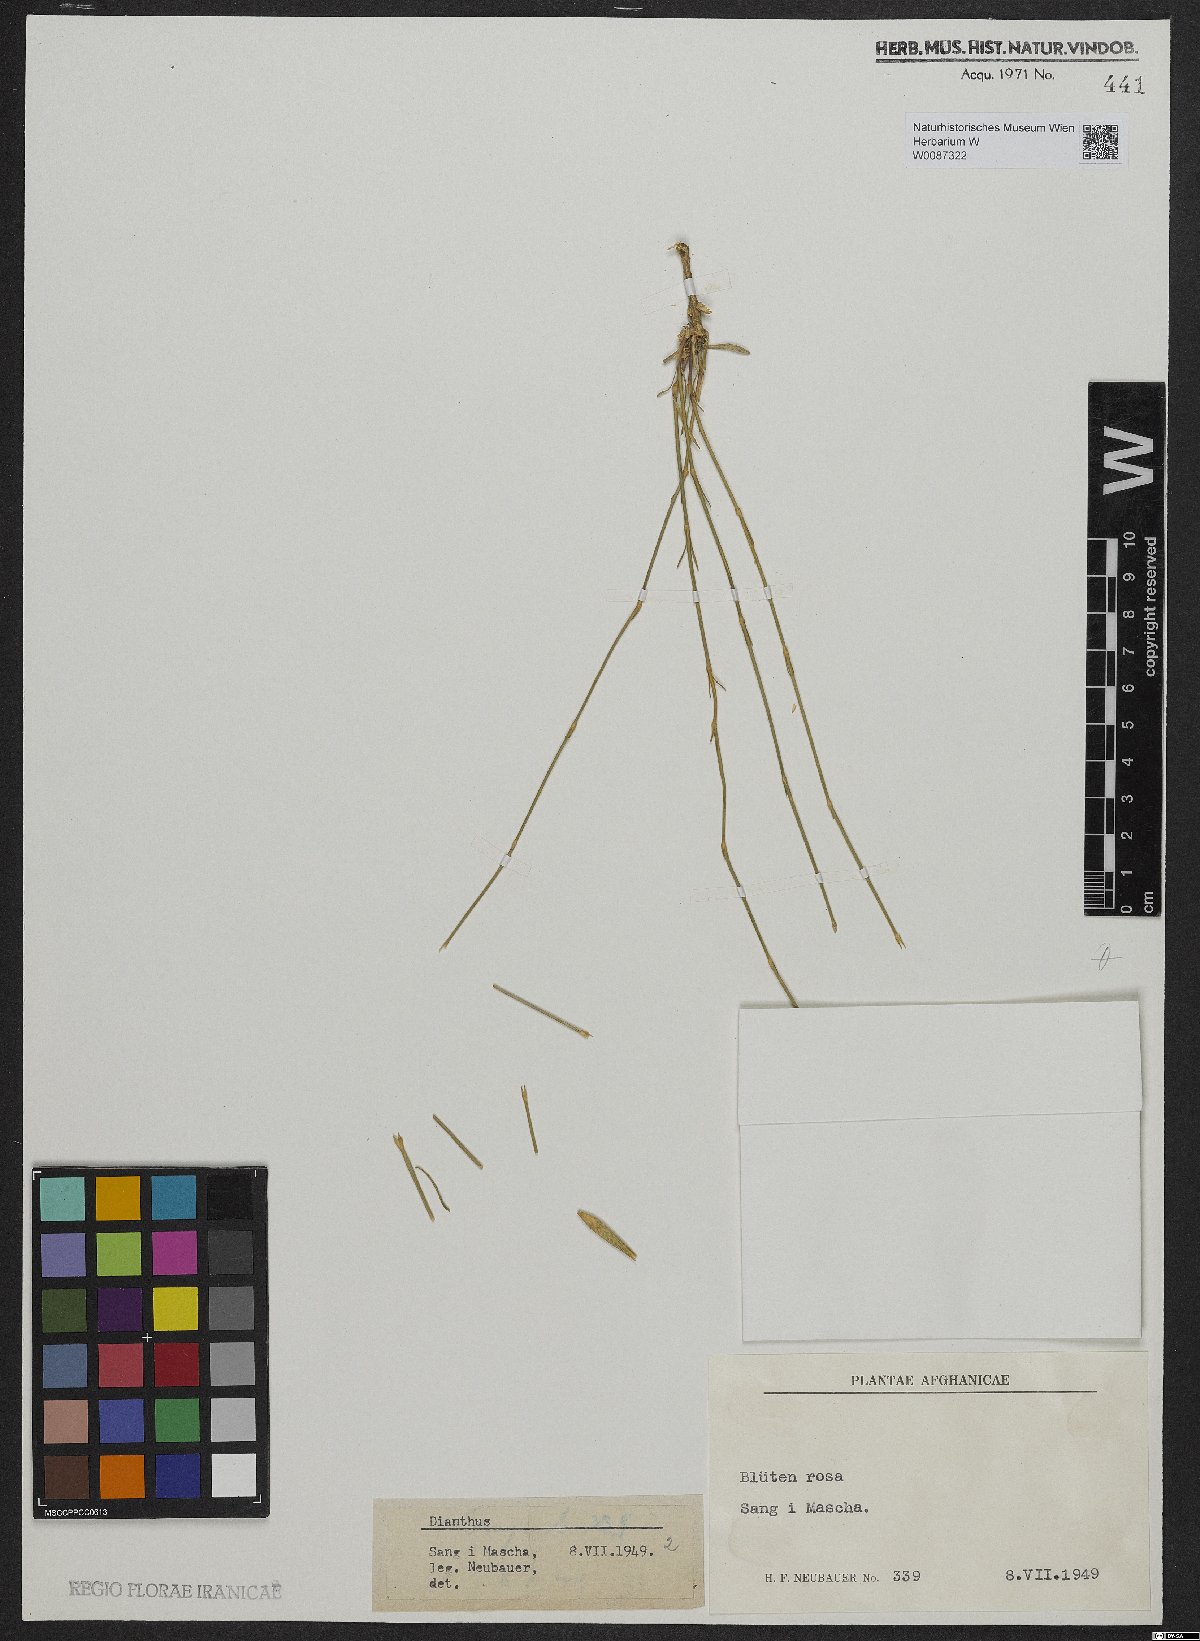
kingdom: Plantae
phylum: Tracheophyta
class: Magnoliopsida
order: Caryophyllales
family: Caryophyllaceae
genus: Dianthus
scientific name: Dianthus
